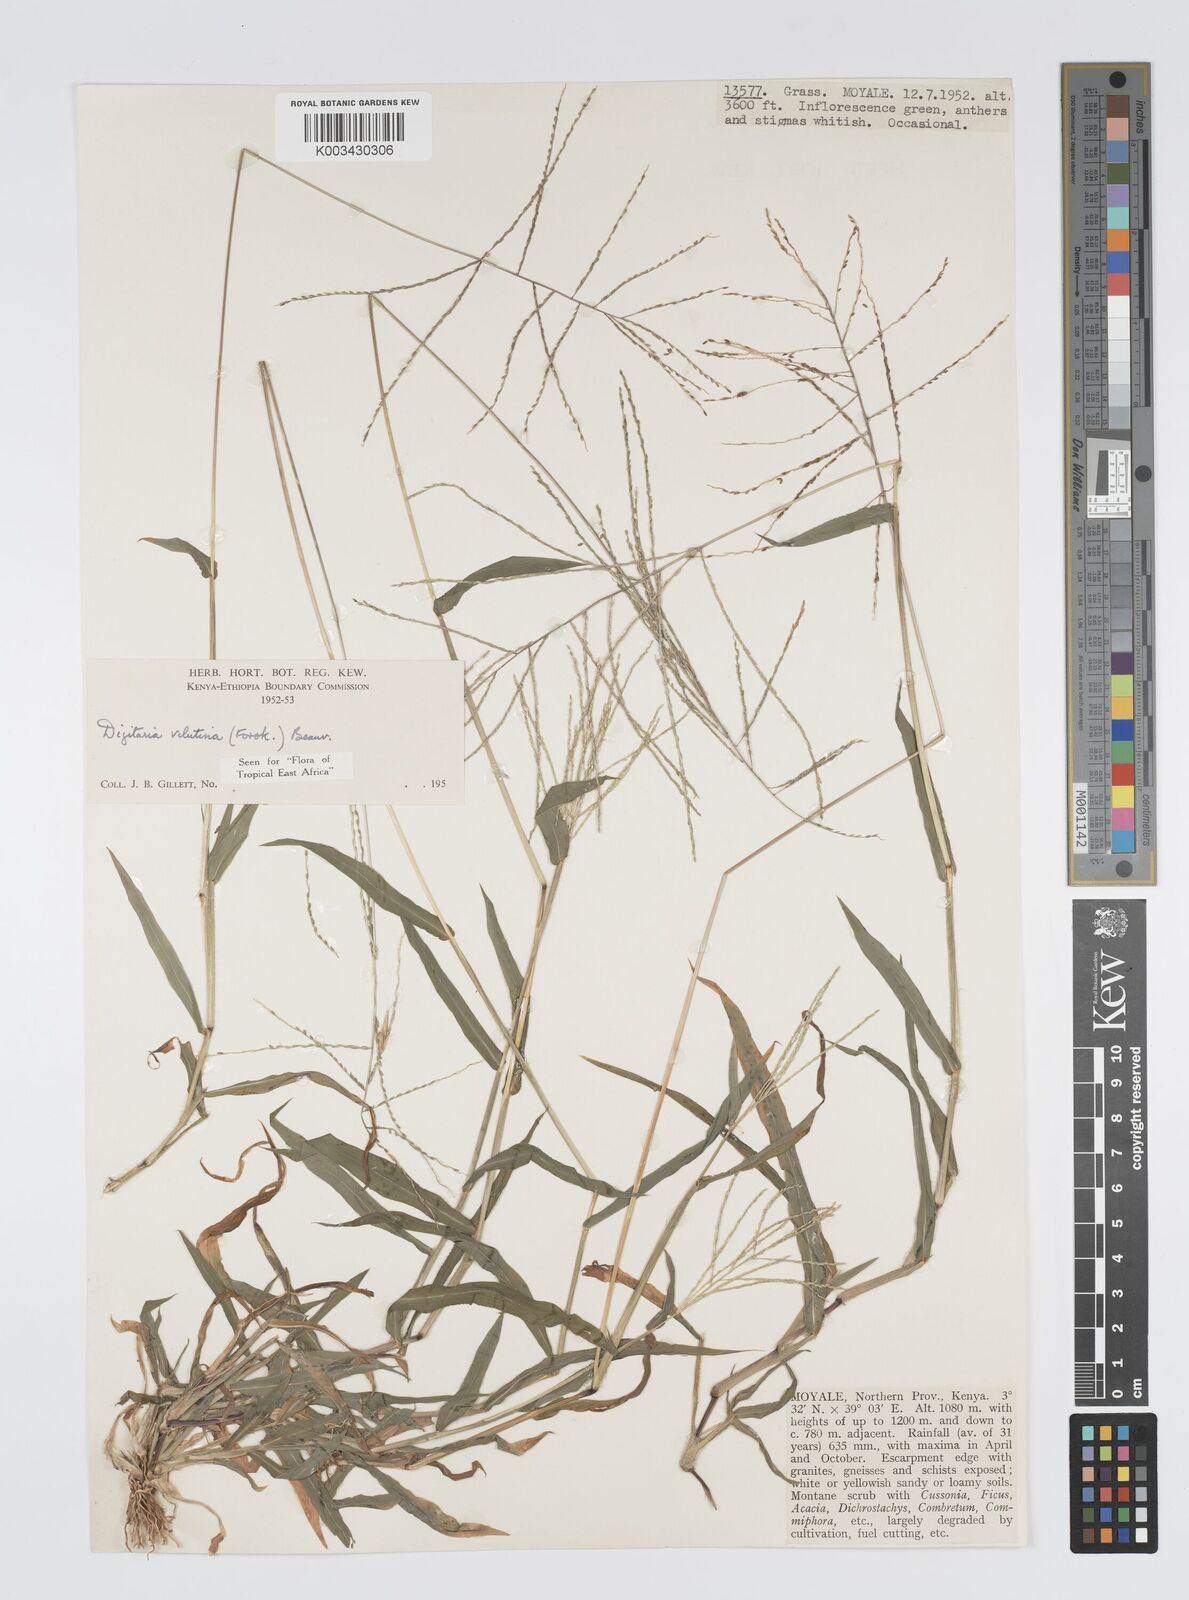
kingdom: Plantae
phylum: Tracheophyta
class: Liliopsida
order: Poales
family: Poaceae
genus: Digitaria
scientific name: Digitaria velutina
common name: Long-plume finger grass
